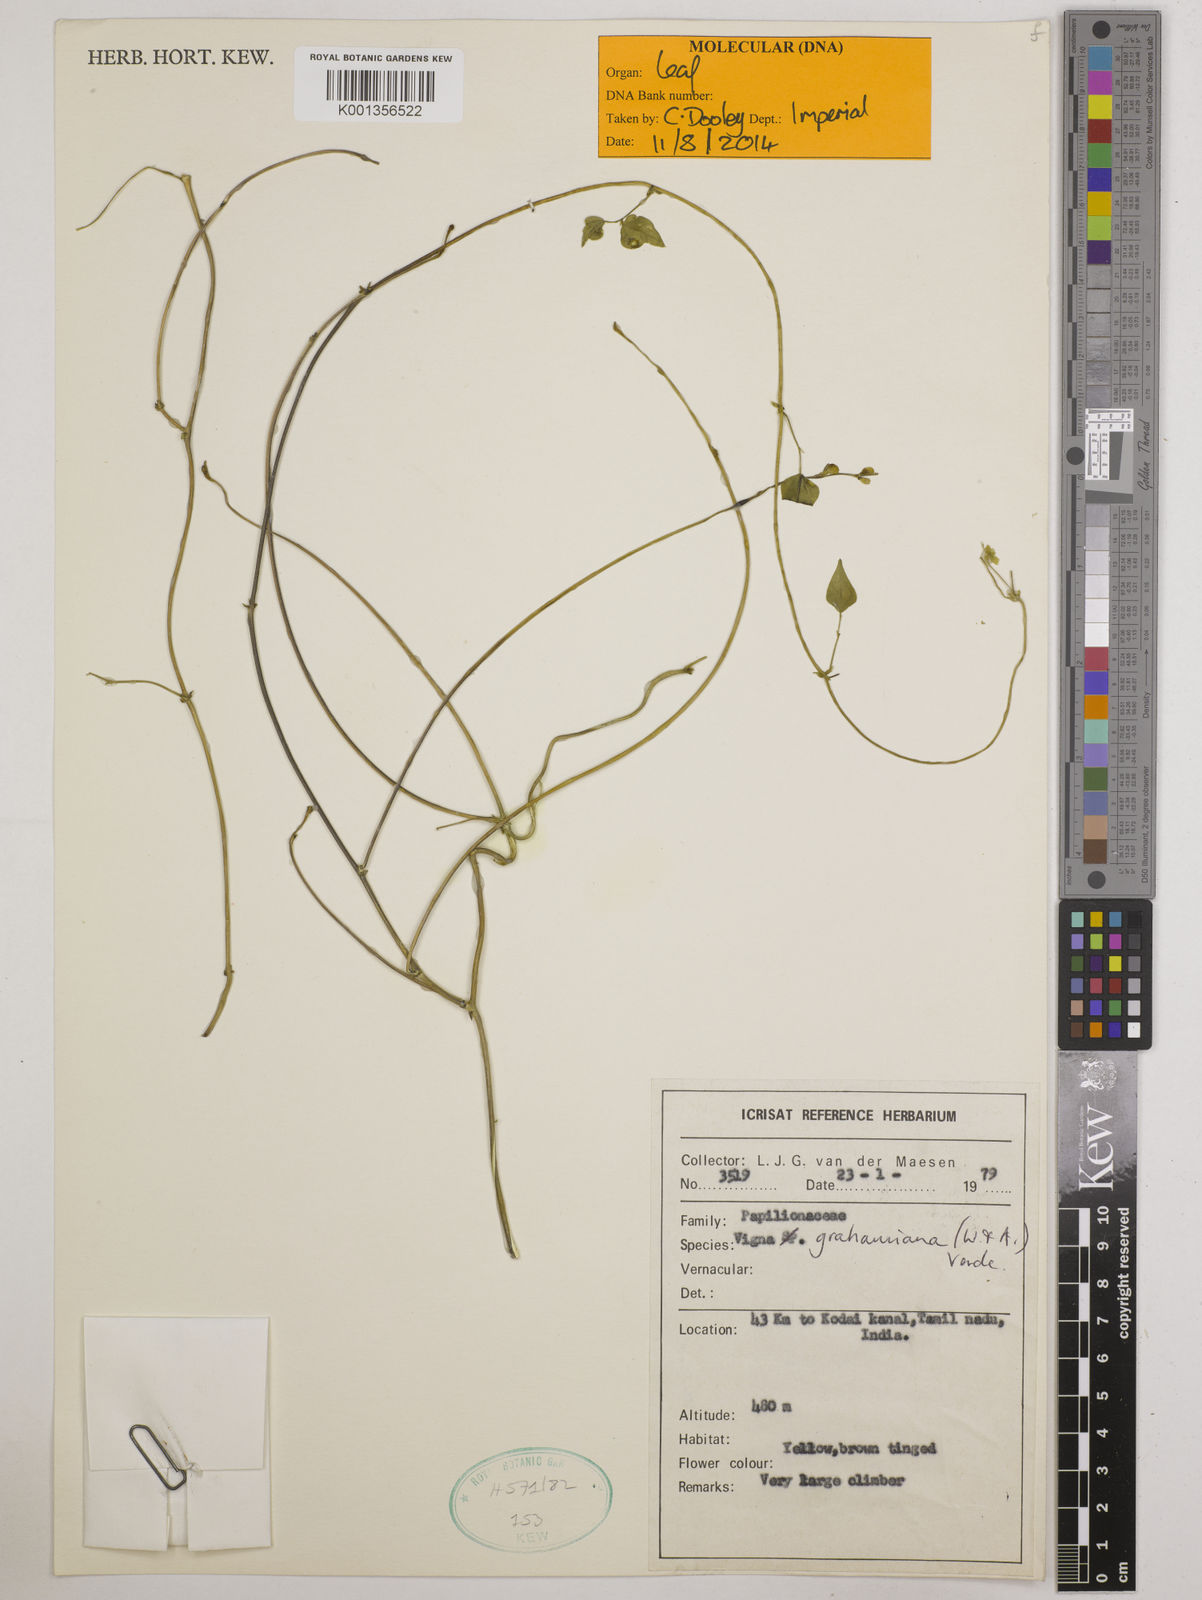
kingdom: Plantae
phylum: Tracheophyta
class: Magnoliopsida
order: Fabales
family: Fabaceae
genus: Wajira
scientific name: Wajira grahamiana
